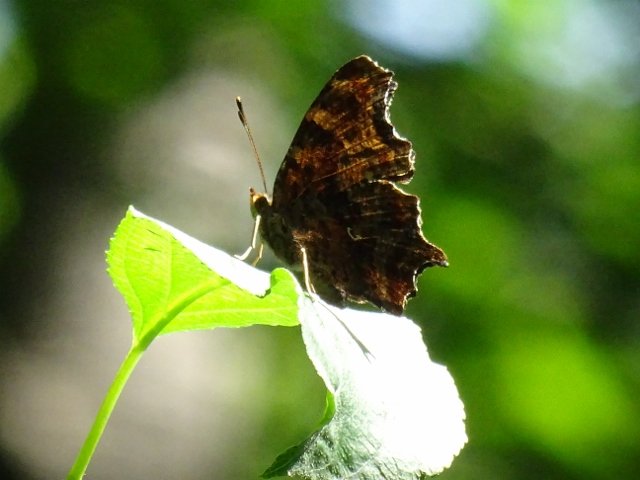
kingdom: Animalia
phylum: Arthropoda
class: Insecta
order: Lepidoptera
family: Nymphalidae
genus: Polygonia
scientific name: Polygonia comma
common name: Eastern Comma
